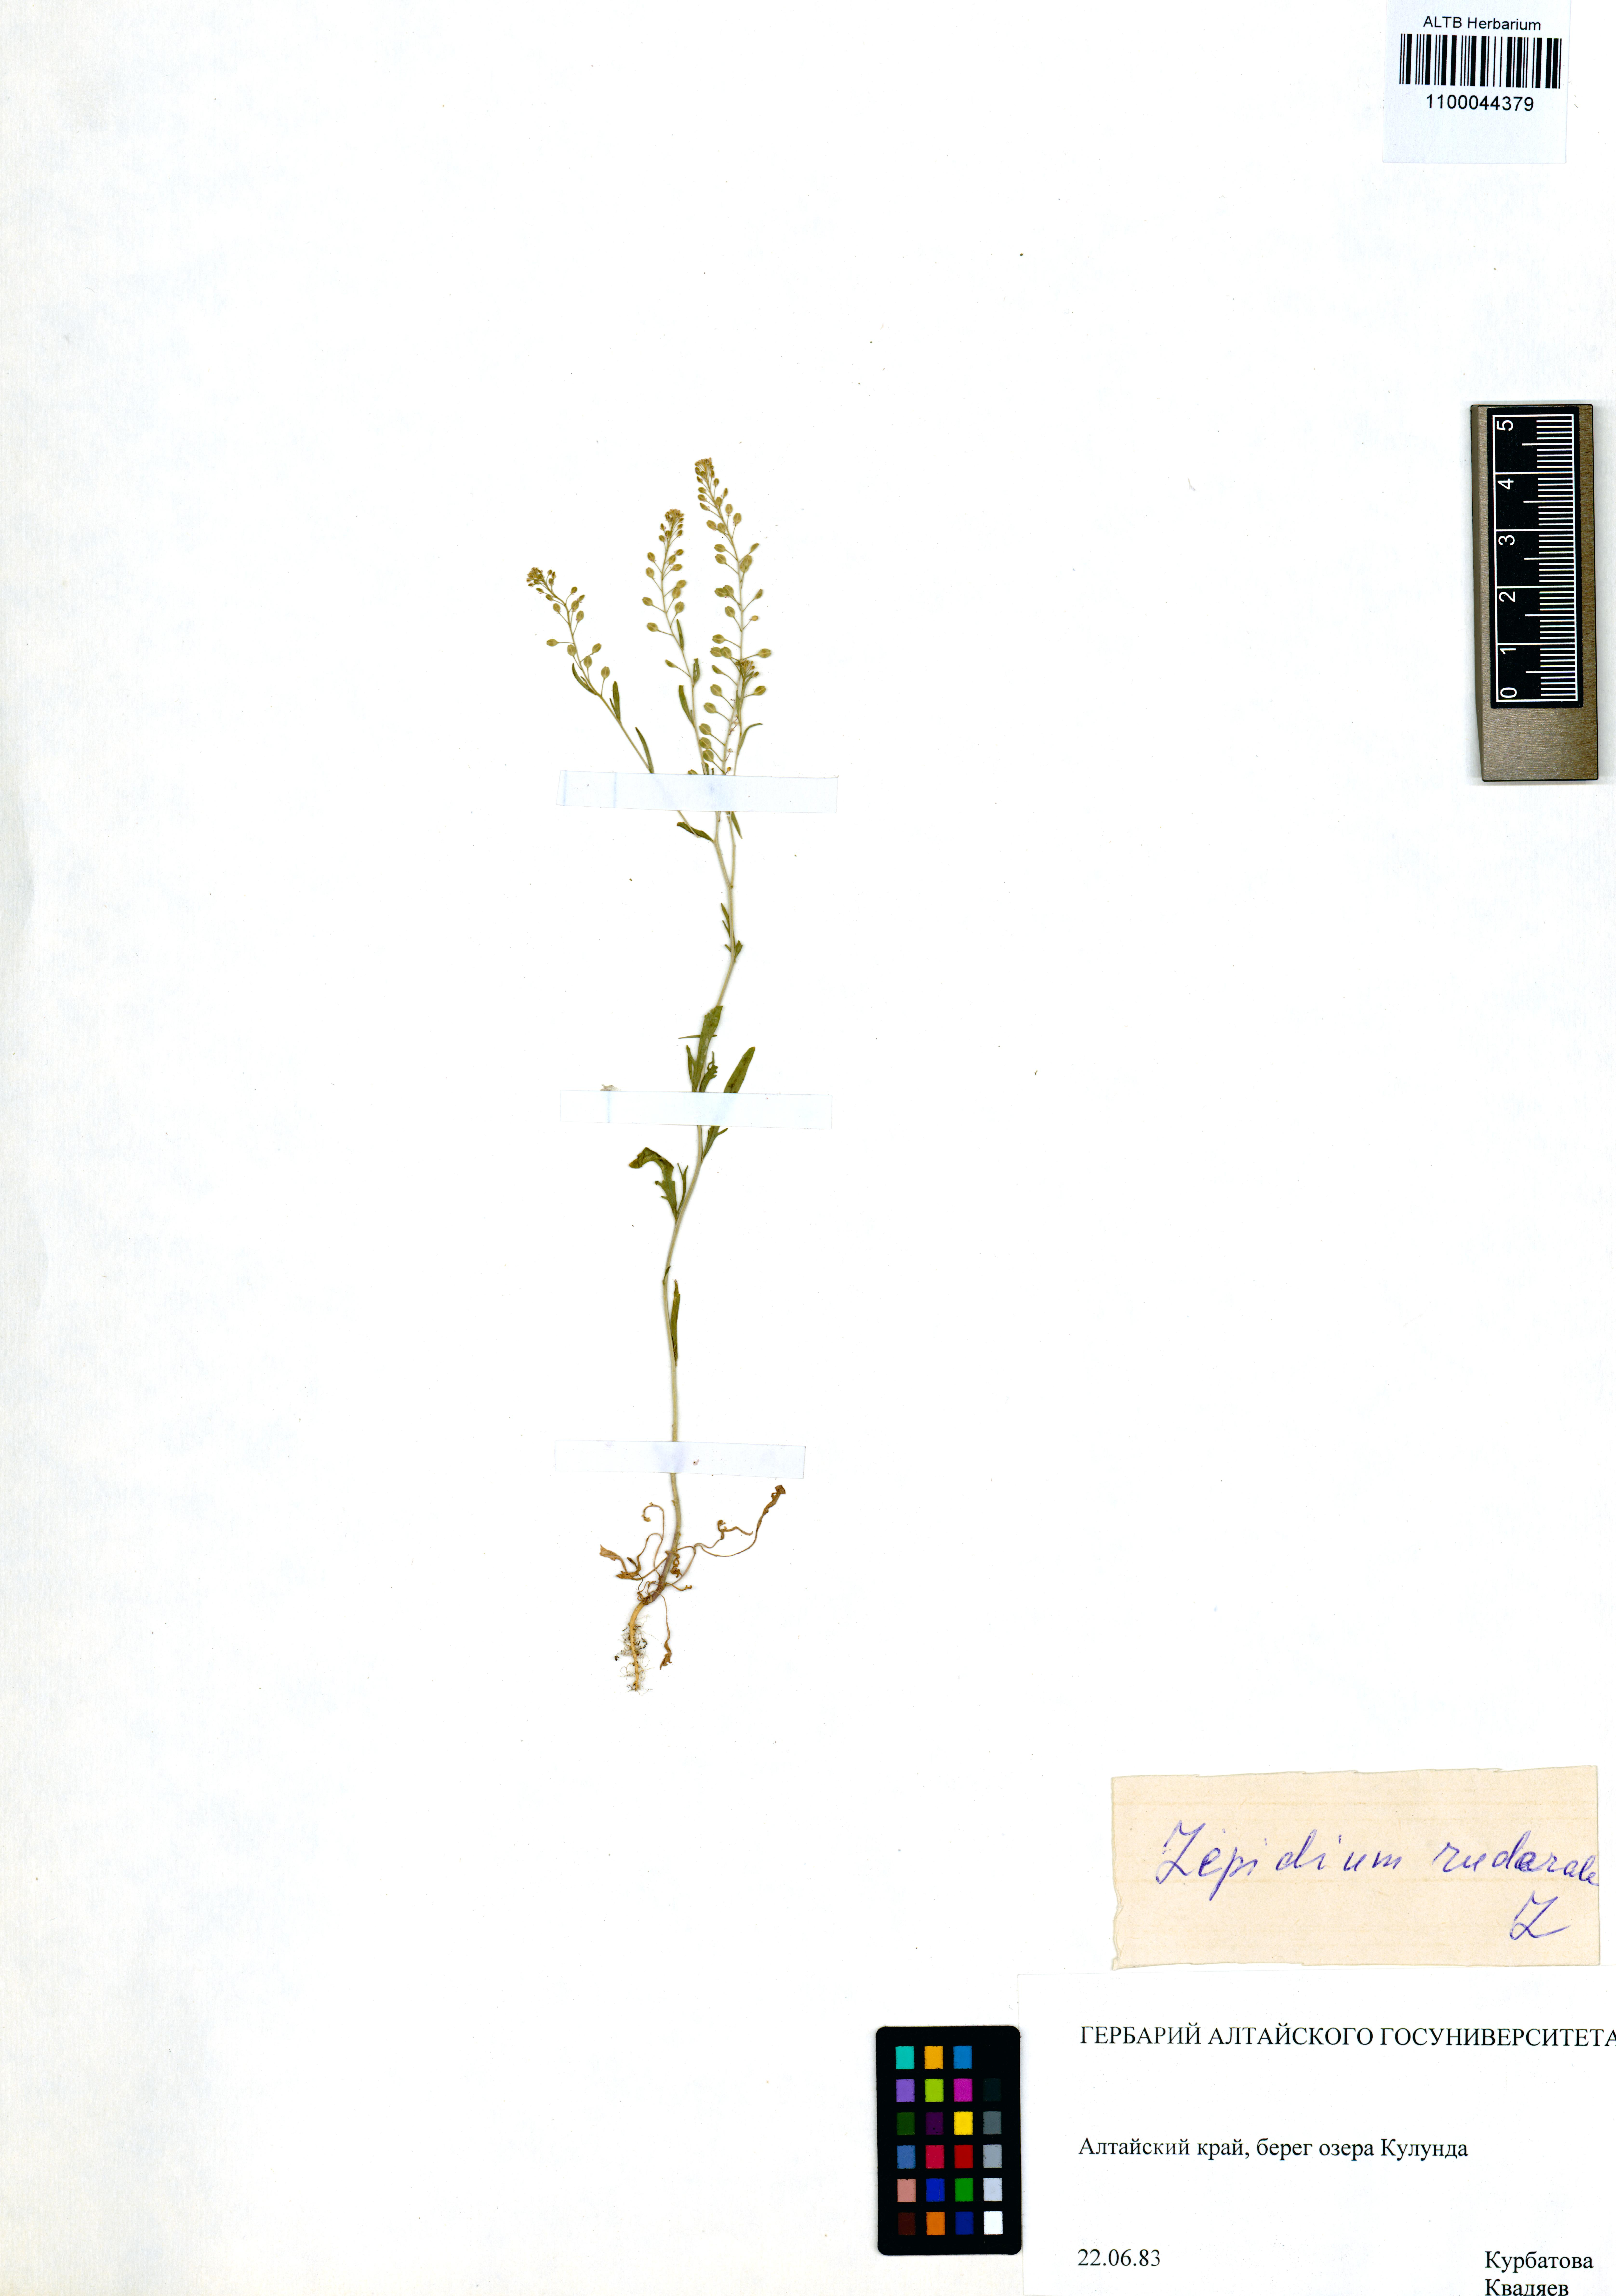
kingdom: Plantae
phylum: Tracheophyta
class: Magnoliopsida
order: Brassicales
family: Brassicaceae
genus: Lepidium
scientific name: Lepidium ruderale
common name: Narrow-leaved pepperwort
